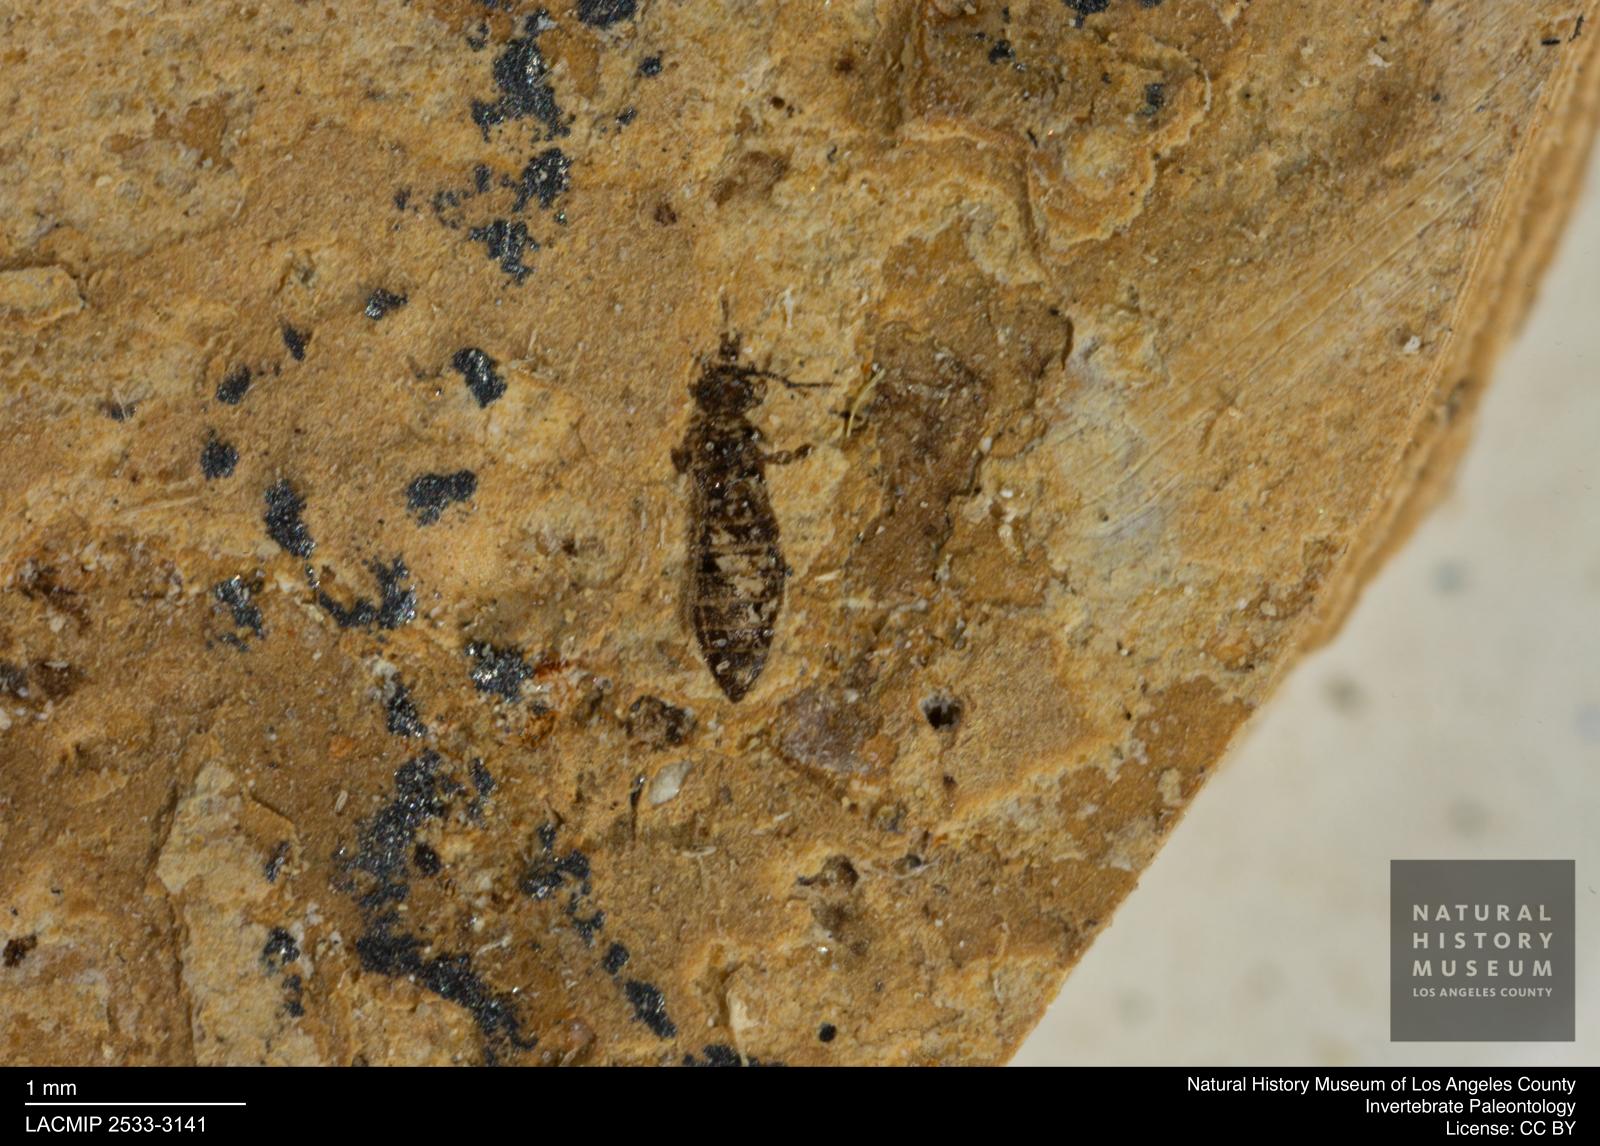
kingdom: Animalia
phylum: Arthropoda
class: Insecta
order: Thysanoptera
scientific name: Thysanoptera
